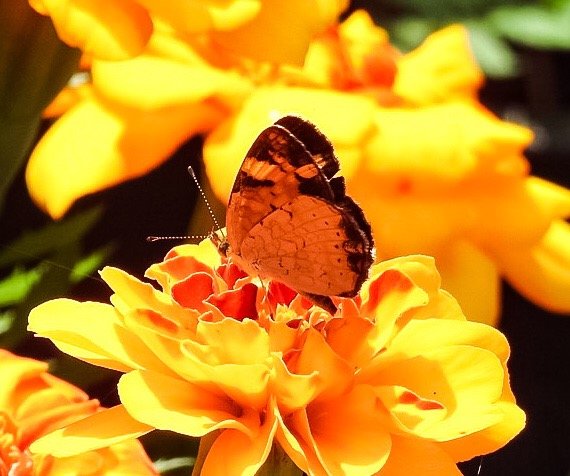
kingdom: Animalia
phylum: Arthropoda
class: Insecta
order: Lepidoptera
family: Nymphalidae
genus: Phyciodes
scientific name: Phyciodes tharos
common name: Pearl Crescent
